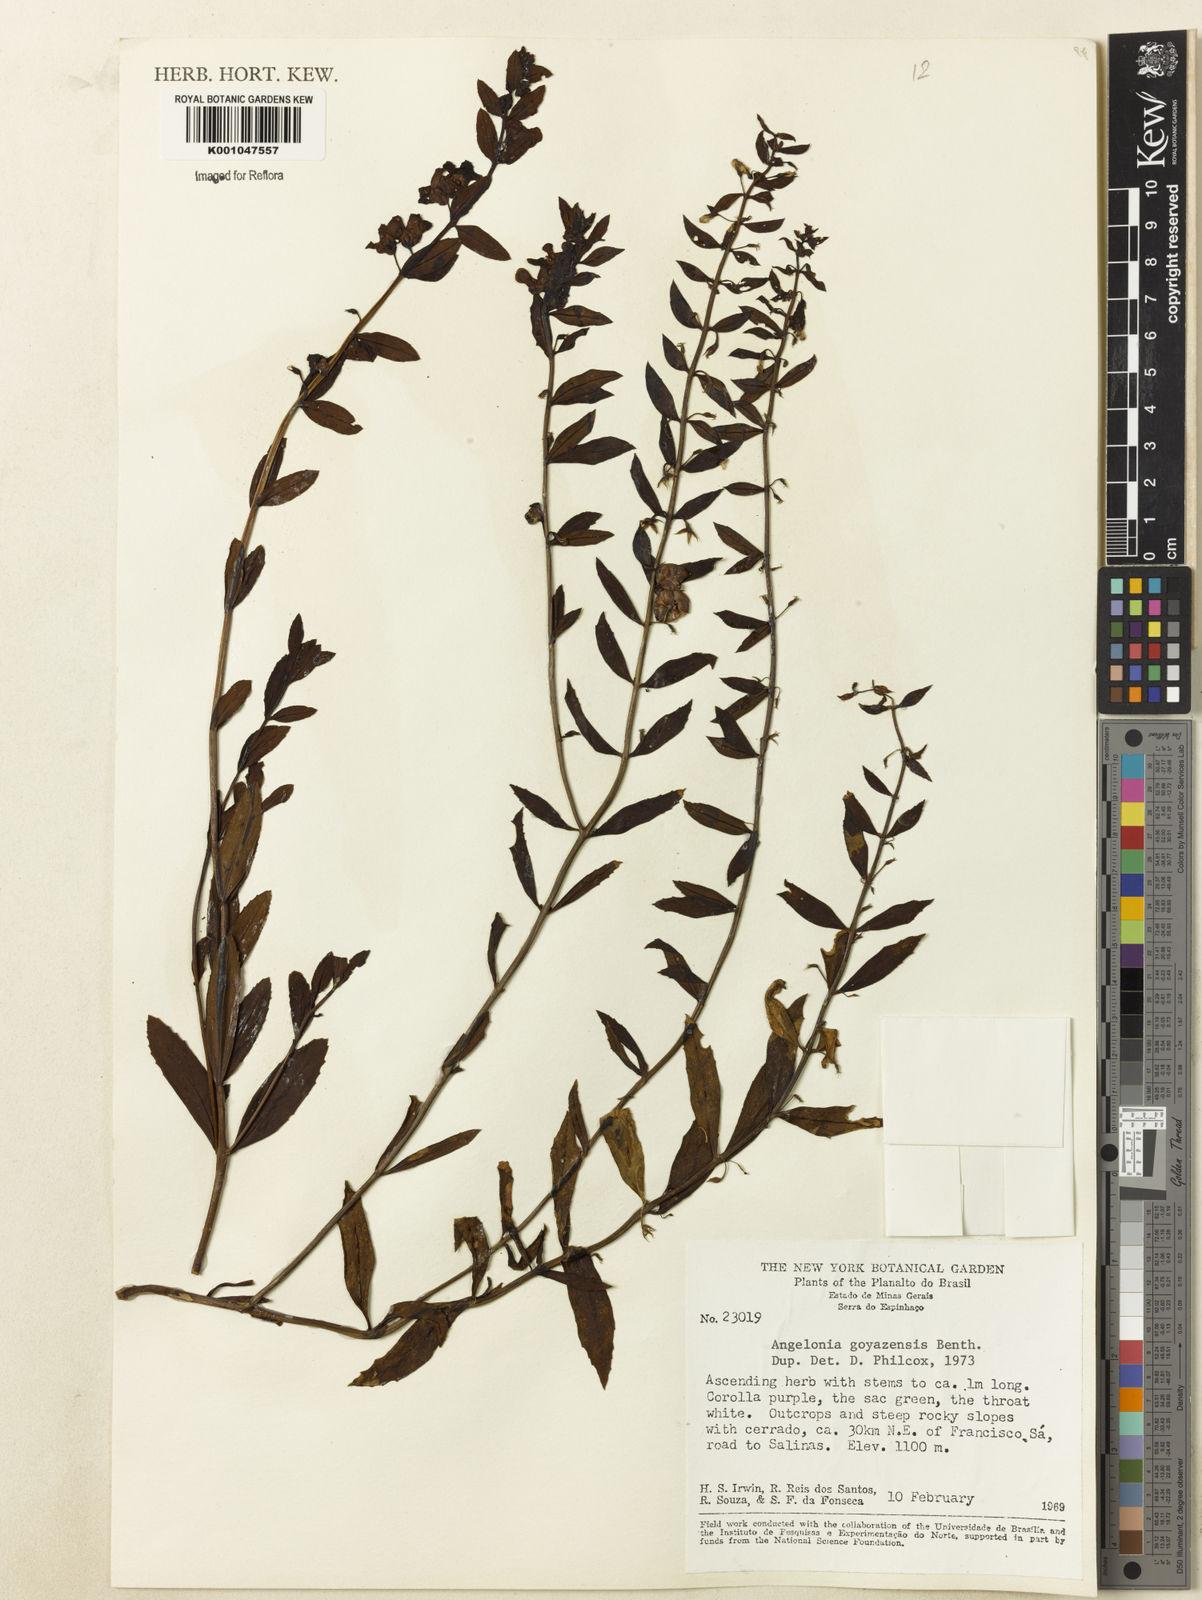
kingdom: Plantae
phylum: Tracheophyta
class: Magnoliopsida
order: Lamiales
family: Plantaginaceae
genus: Angelonia
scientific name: Angelonia goyazensis
